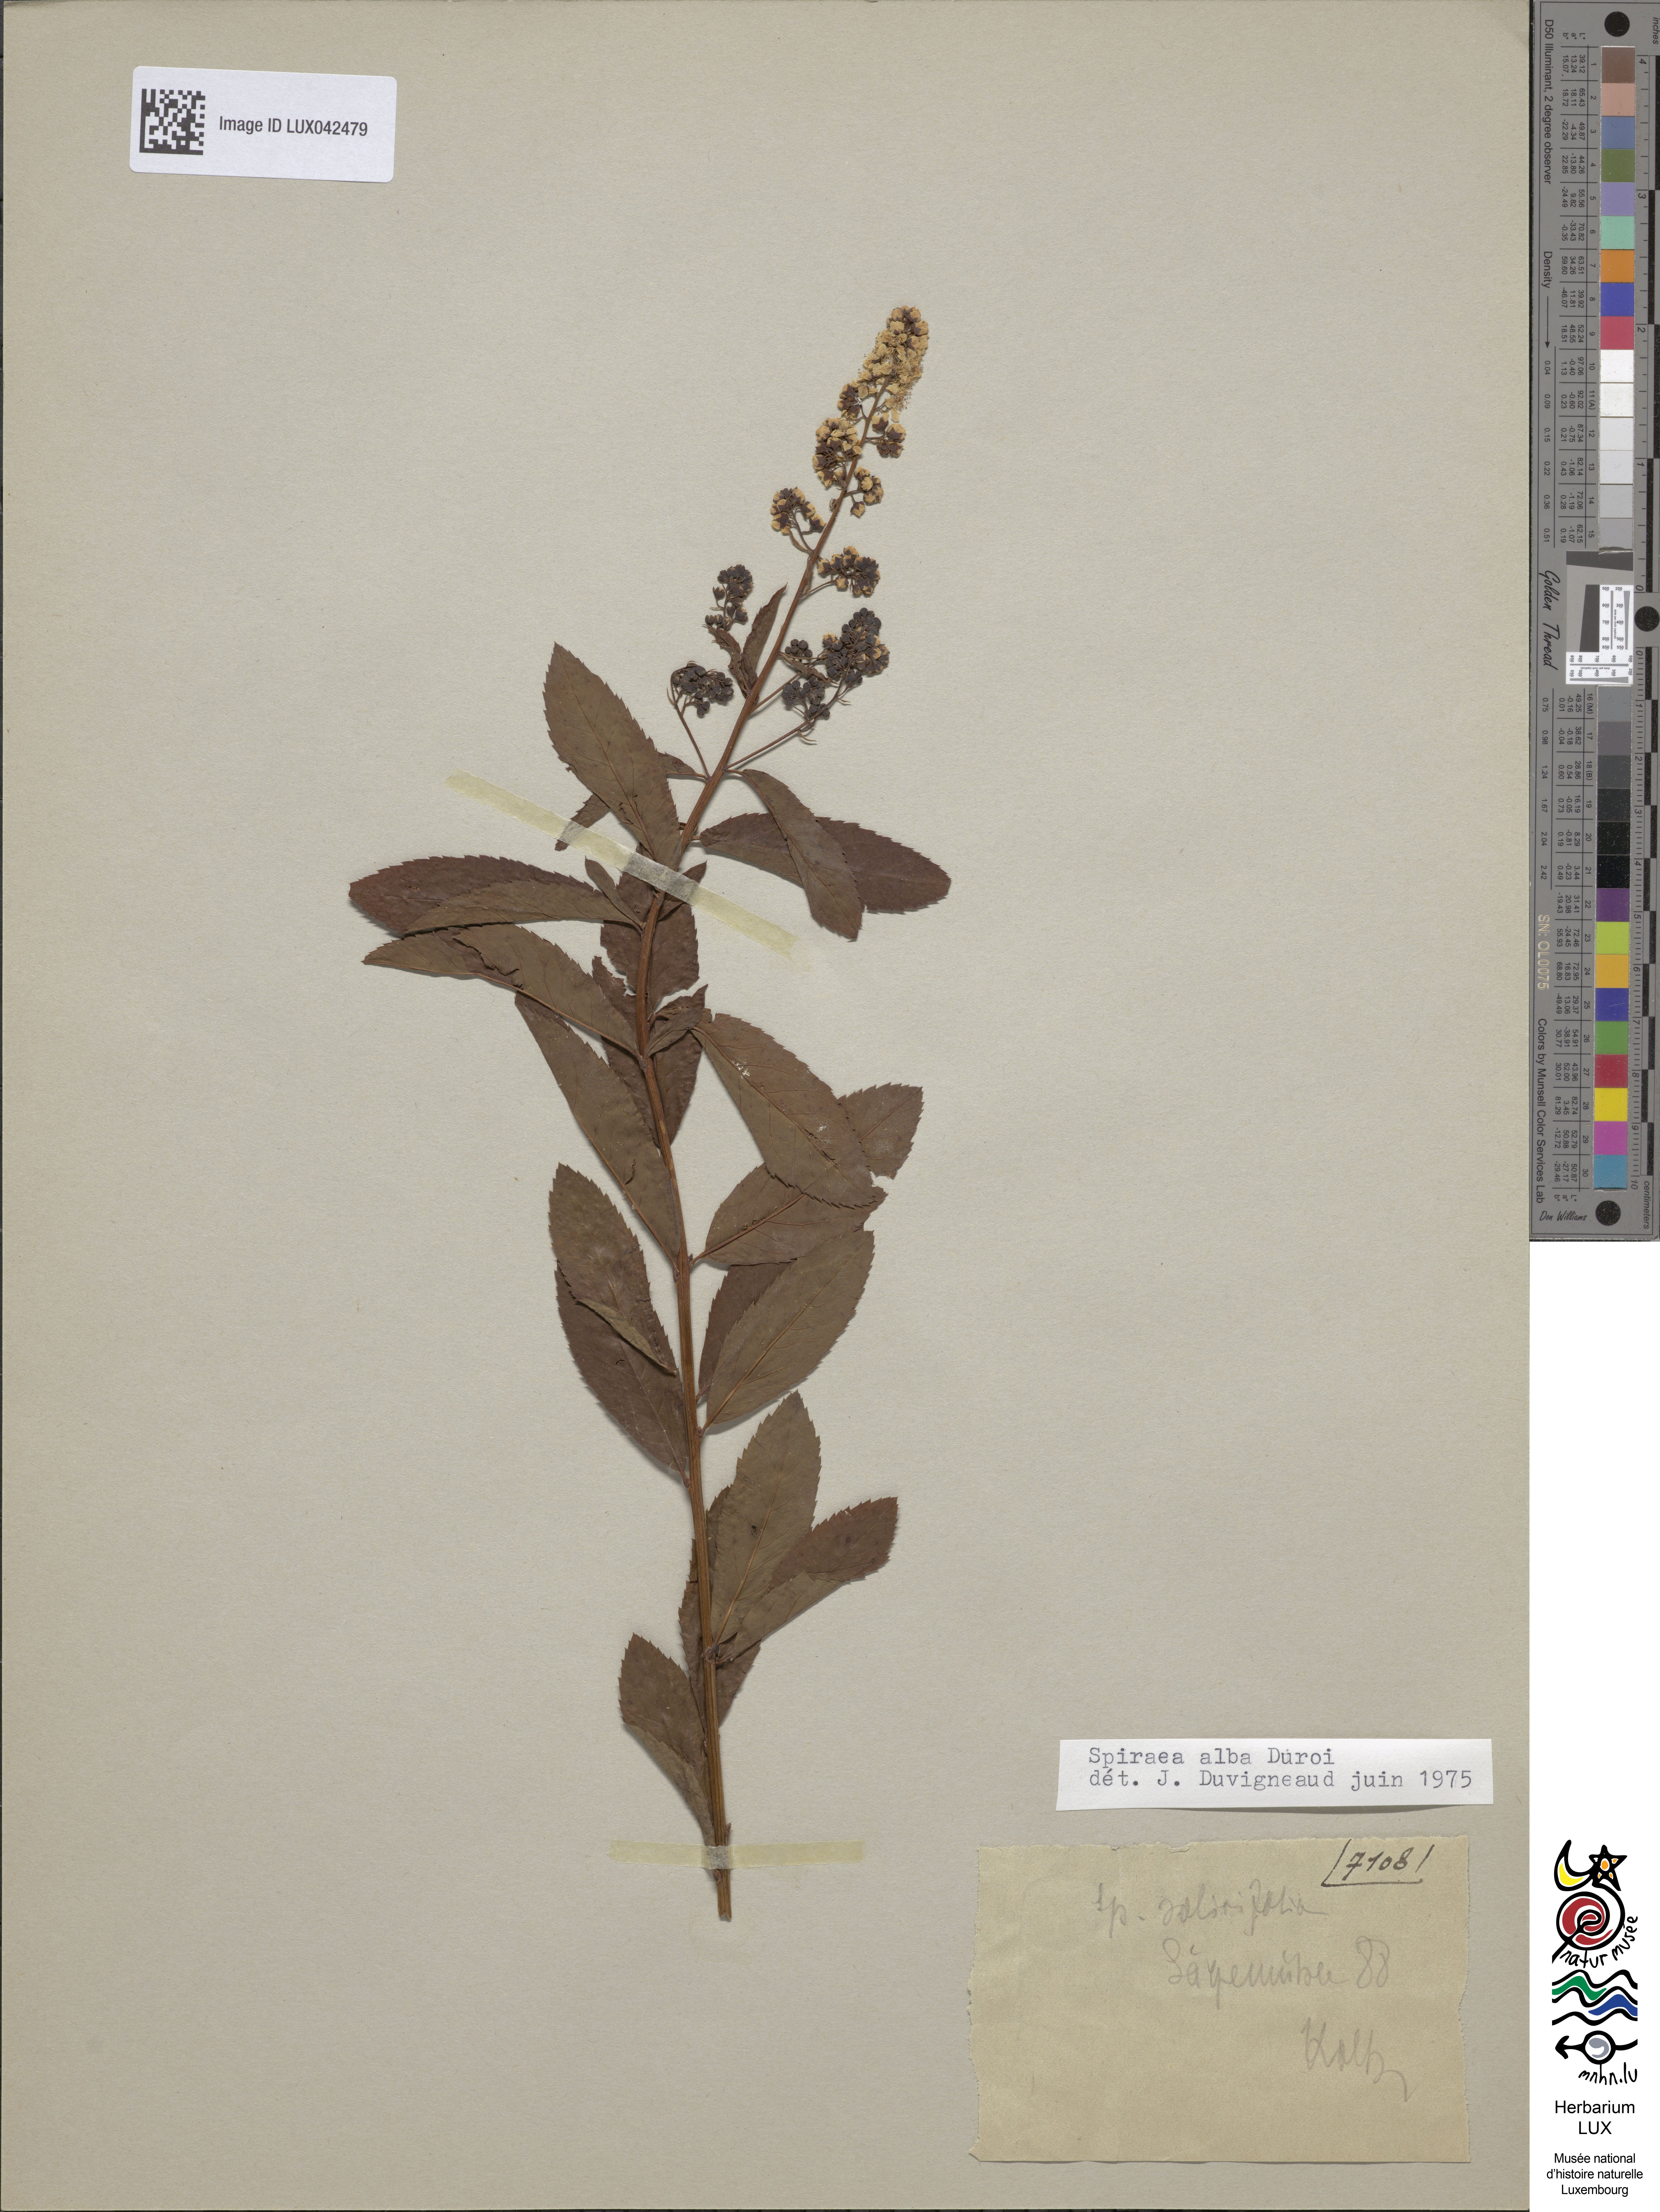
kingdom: Plantae
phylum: Tracheophyta
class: Magnoliopsida
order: Rosales
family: Rosaceae
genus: Spiraea
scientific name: Spiraea alba
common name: Pale bridewort
